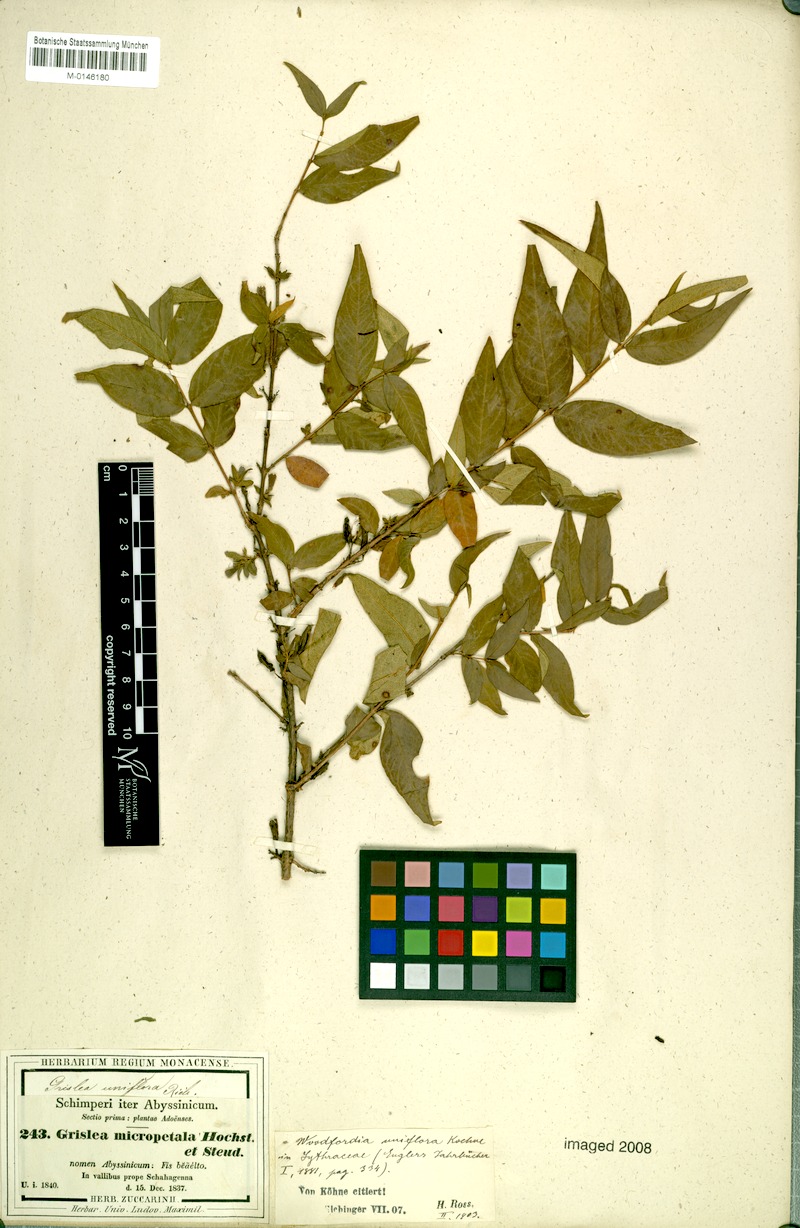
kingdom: Plantae
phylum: Tracheophyta
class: Magnoliopsida
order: Myrtales
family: Lythraceae
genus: Woodfordia
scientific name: Woodfordia uniflora
